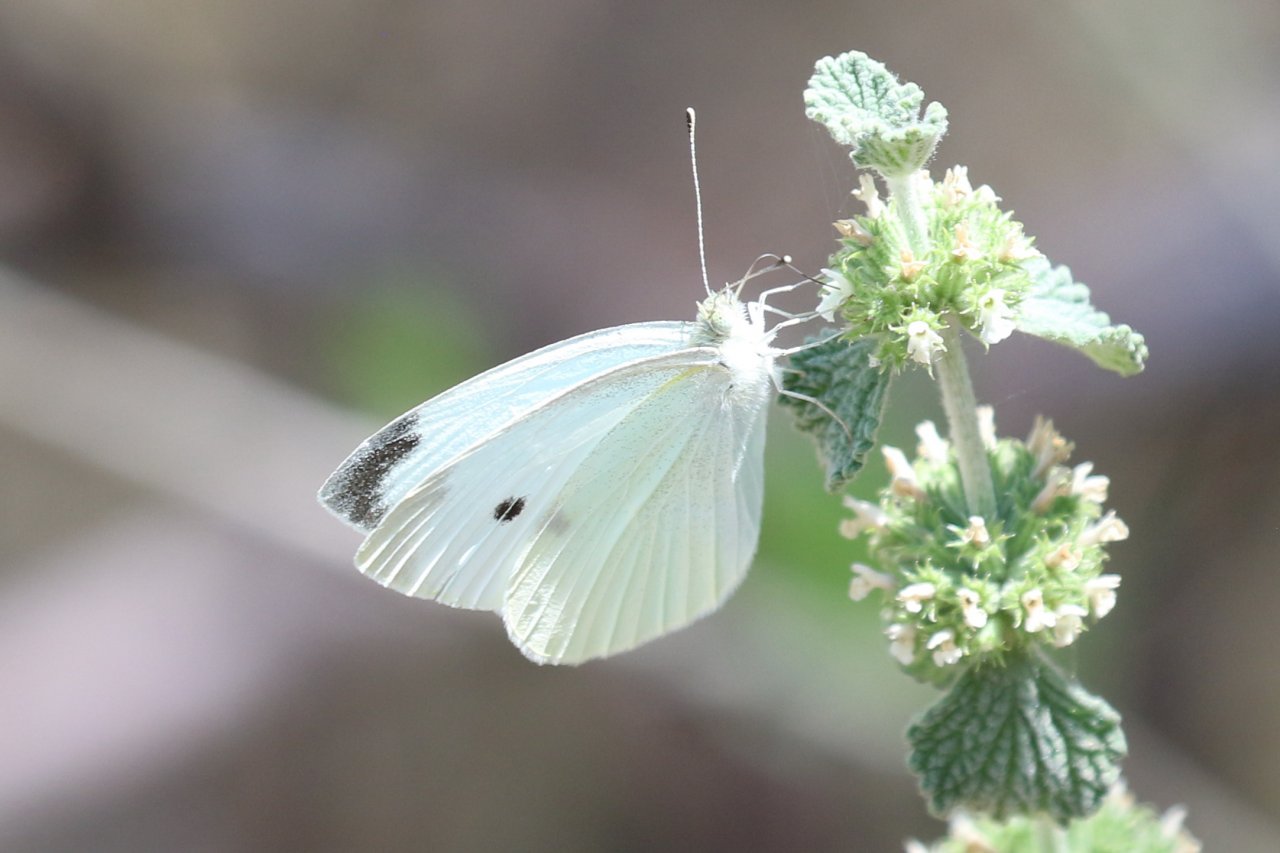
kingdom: Animalia
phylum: Arthropoda
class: Insecta
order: Lepidoptera
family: Pieridae
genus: Pieris
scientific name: Pieris rapae
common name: Cabbage White
